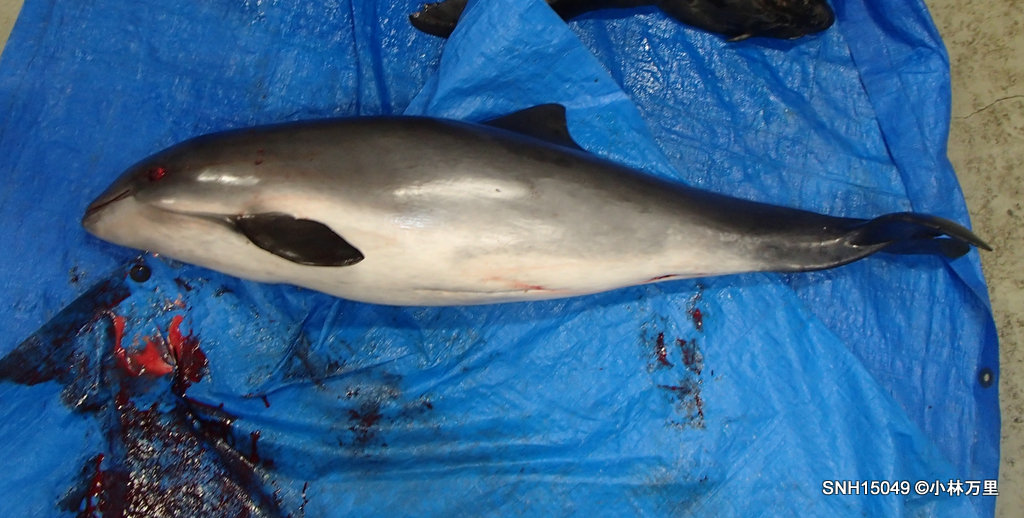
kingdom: Animalia
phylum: Chordata
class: Mammalia
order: Cetacea
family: Phocoenidae
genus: Phocoena
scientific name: Phocoena phocoena
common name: Harbour porpoise
